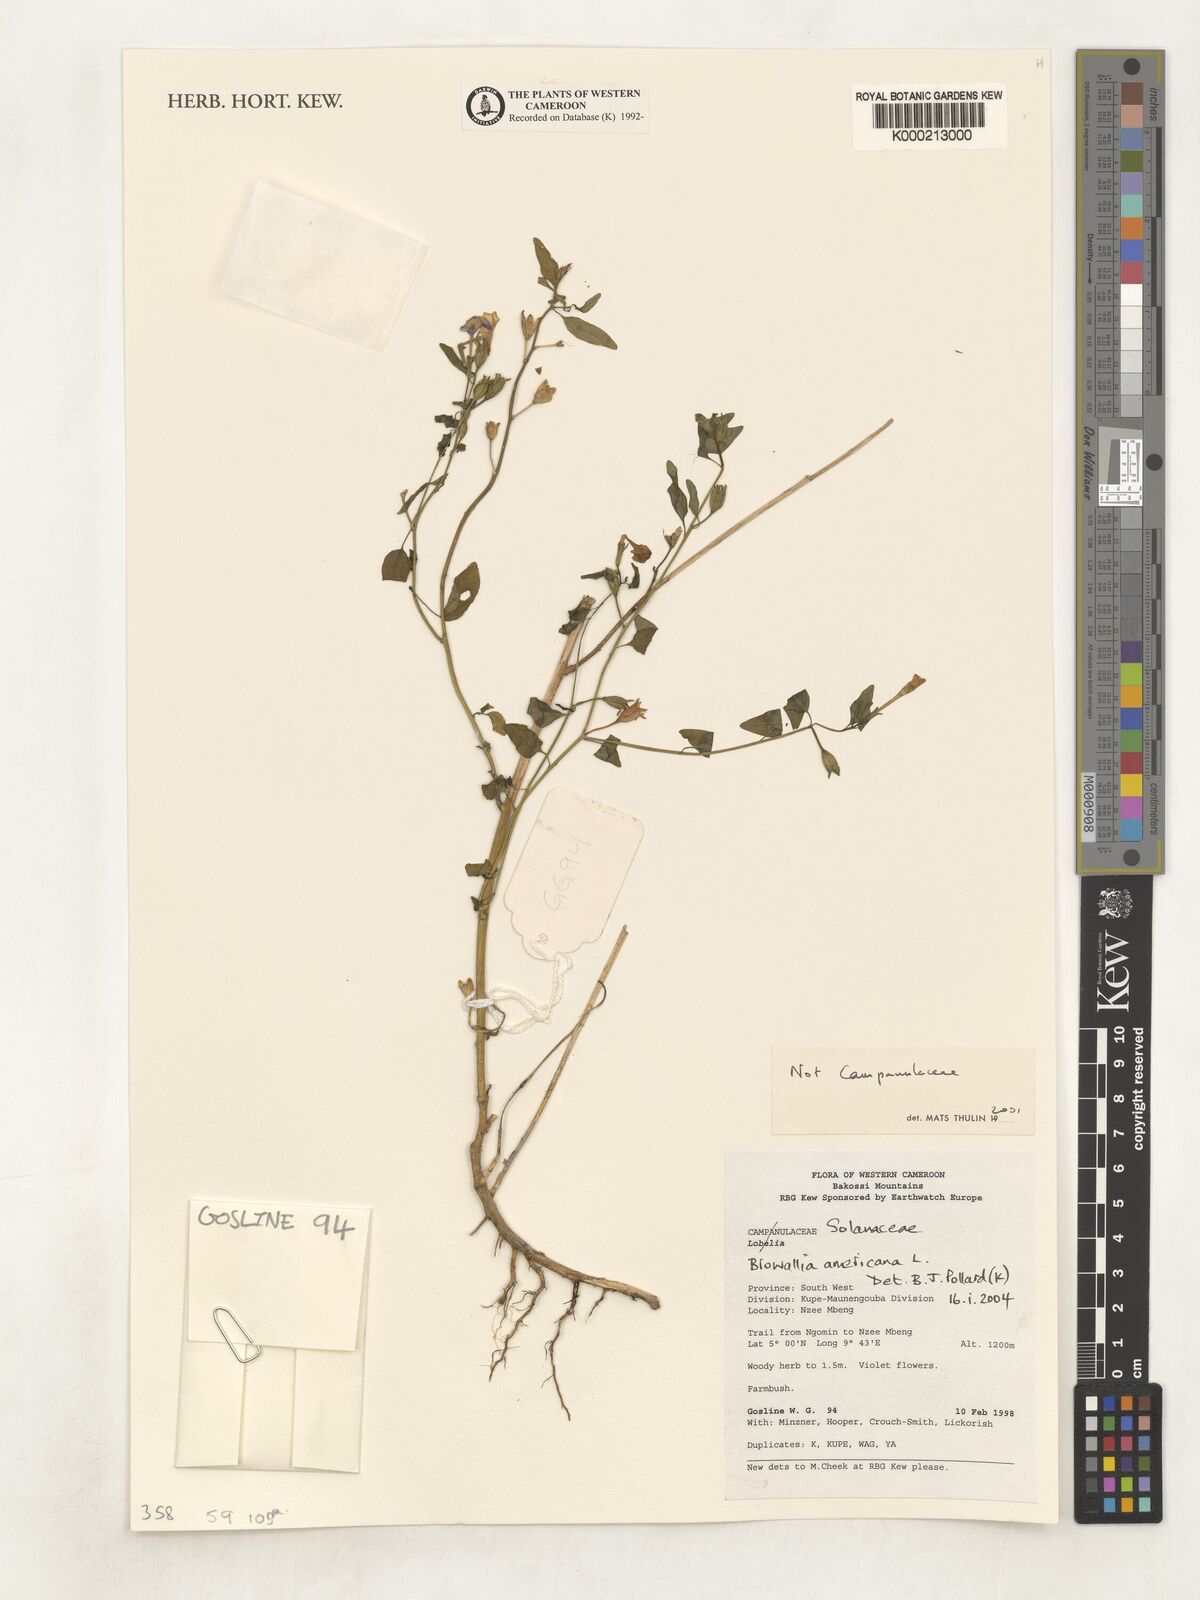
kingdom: Plantae
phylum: Tracheophyta
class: Magnoliopsida
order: Solanales
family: Solanaceae
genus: Browallia
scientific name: Browallia americana
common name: Jamaican forget-me-not
